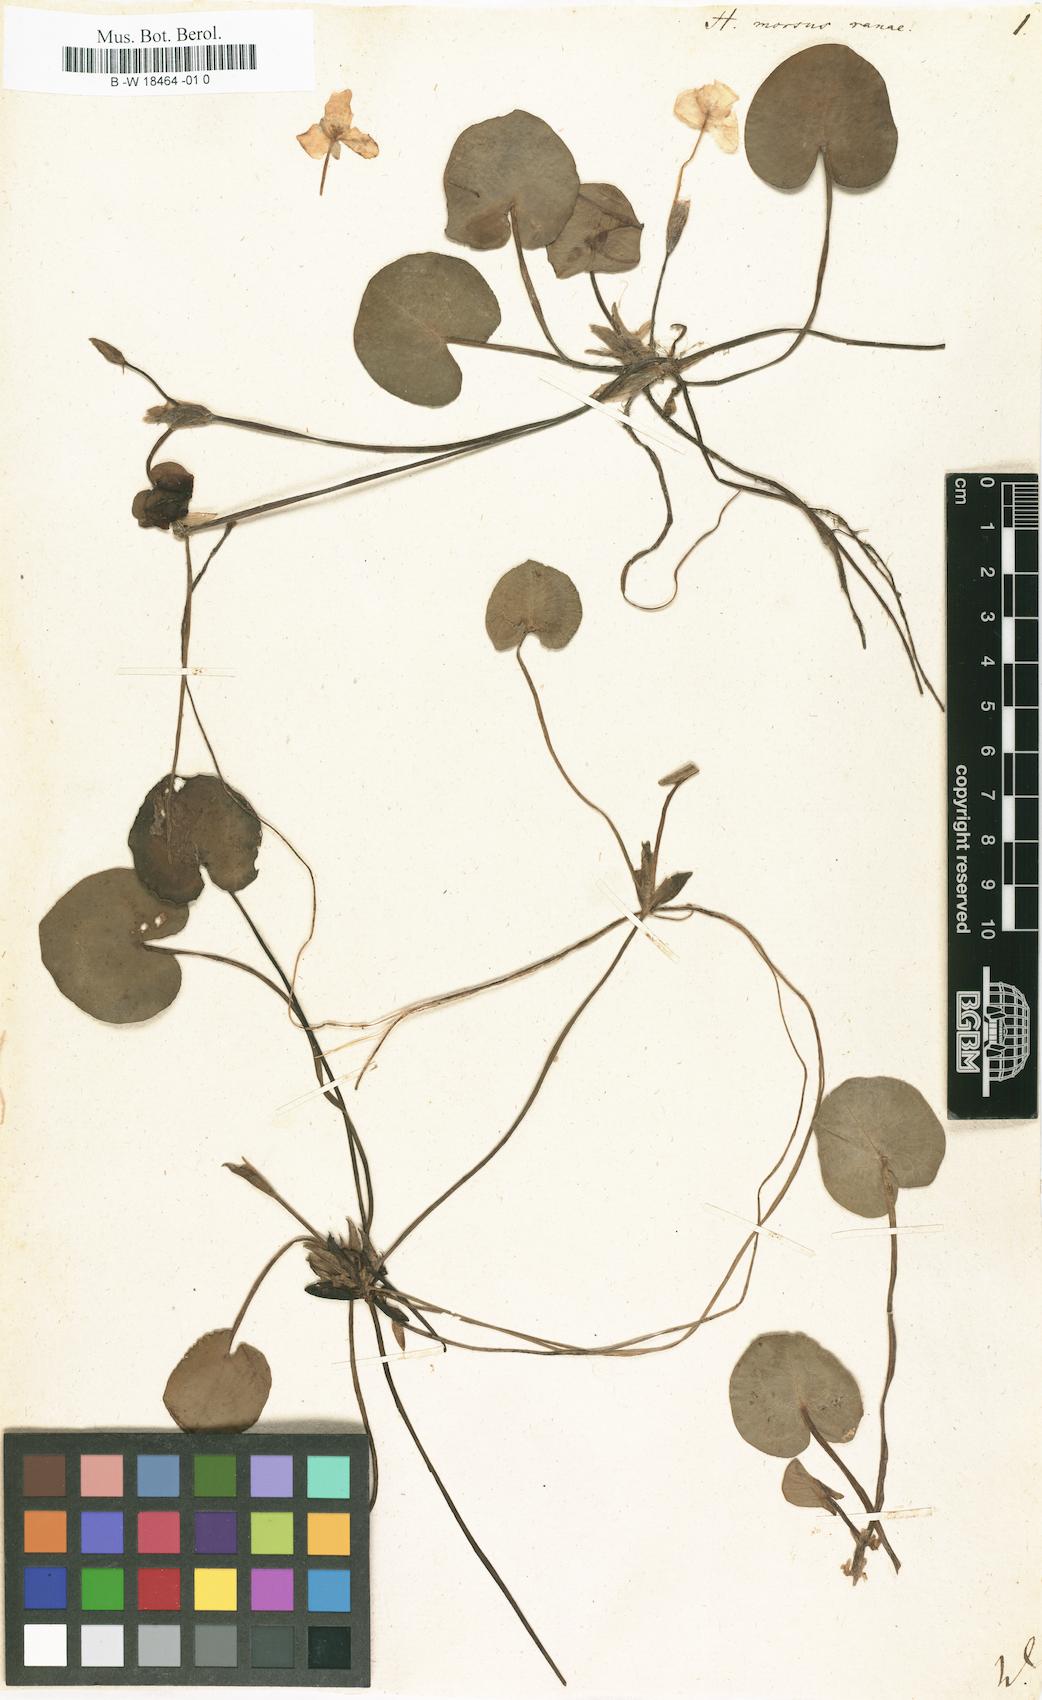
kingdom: Plantae
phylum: Tracheophyta
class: Liliopsida
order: Alismatales
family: Hydrocharitaceae
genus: Hydrocharis
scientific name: Hydrocharis morsus-ranae
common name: Frogbit
